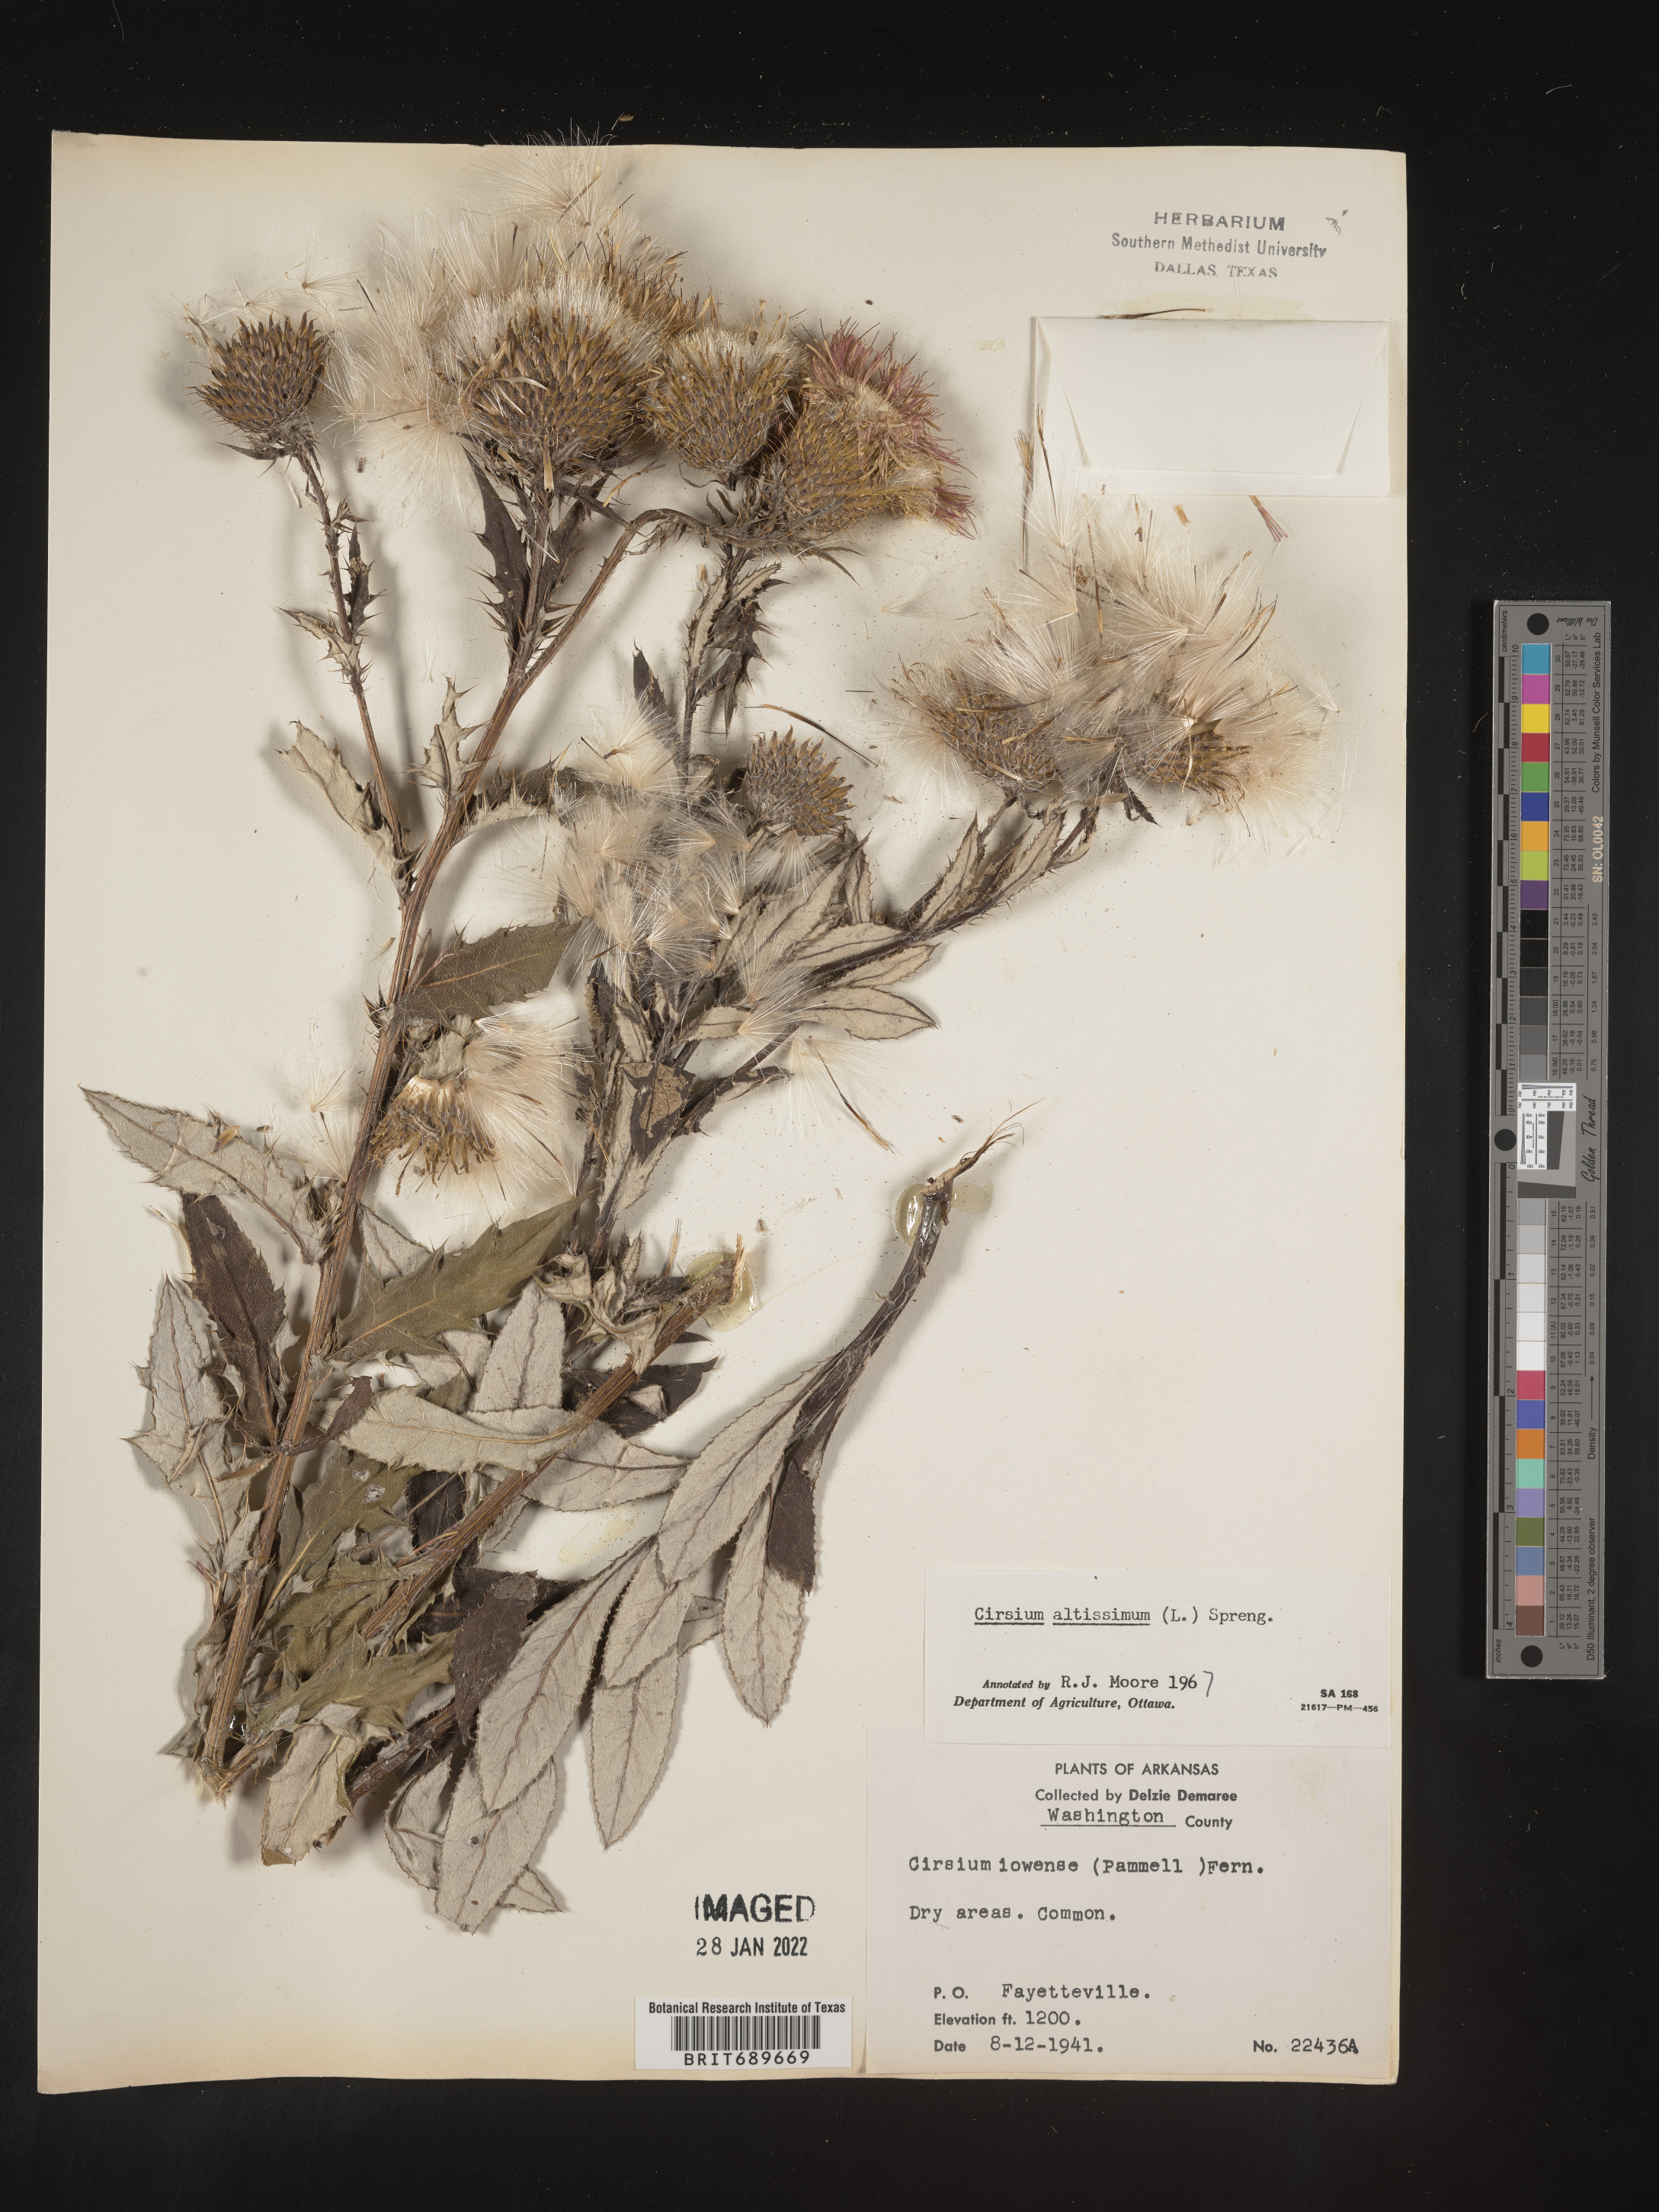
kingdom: Plantae
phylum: Tracheophyta
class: Magnoliopsida
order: Asterales
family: Asteraceae
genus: Cirsium
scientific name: Cirsium altissimum
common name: Roadside thistle
